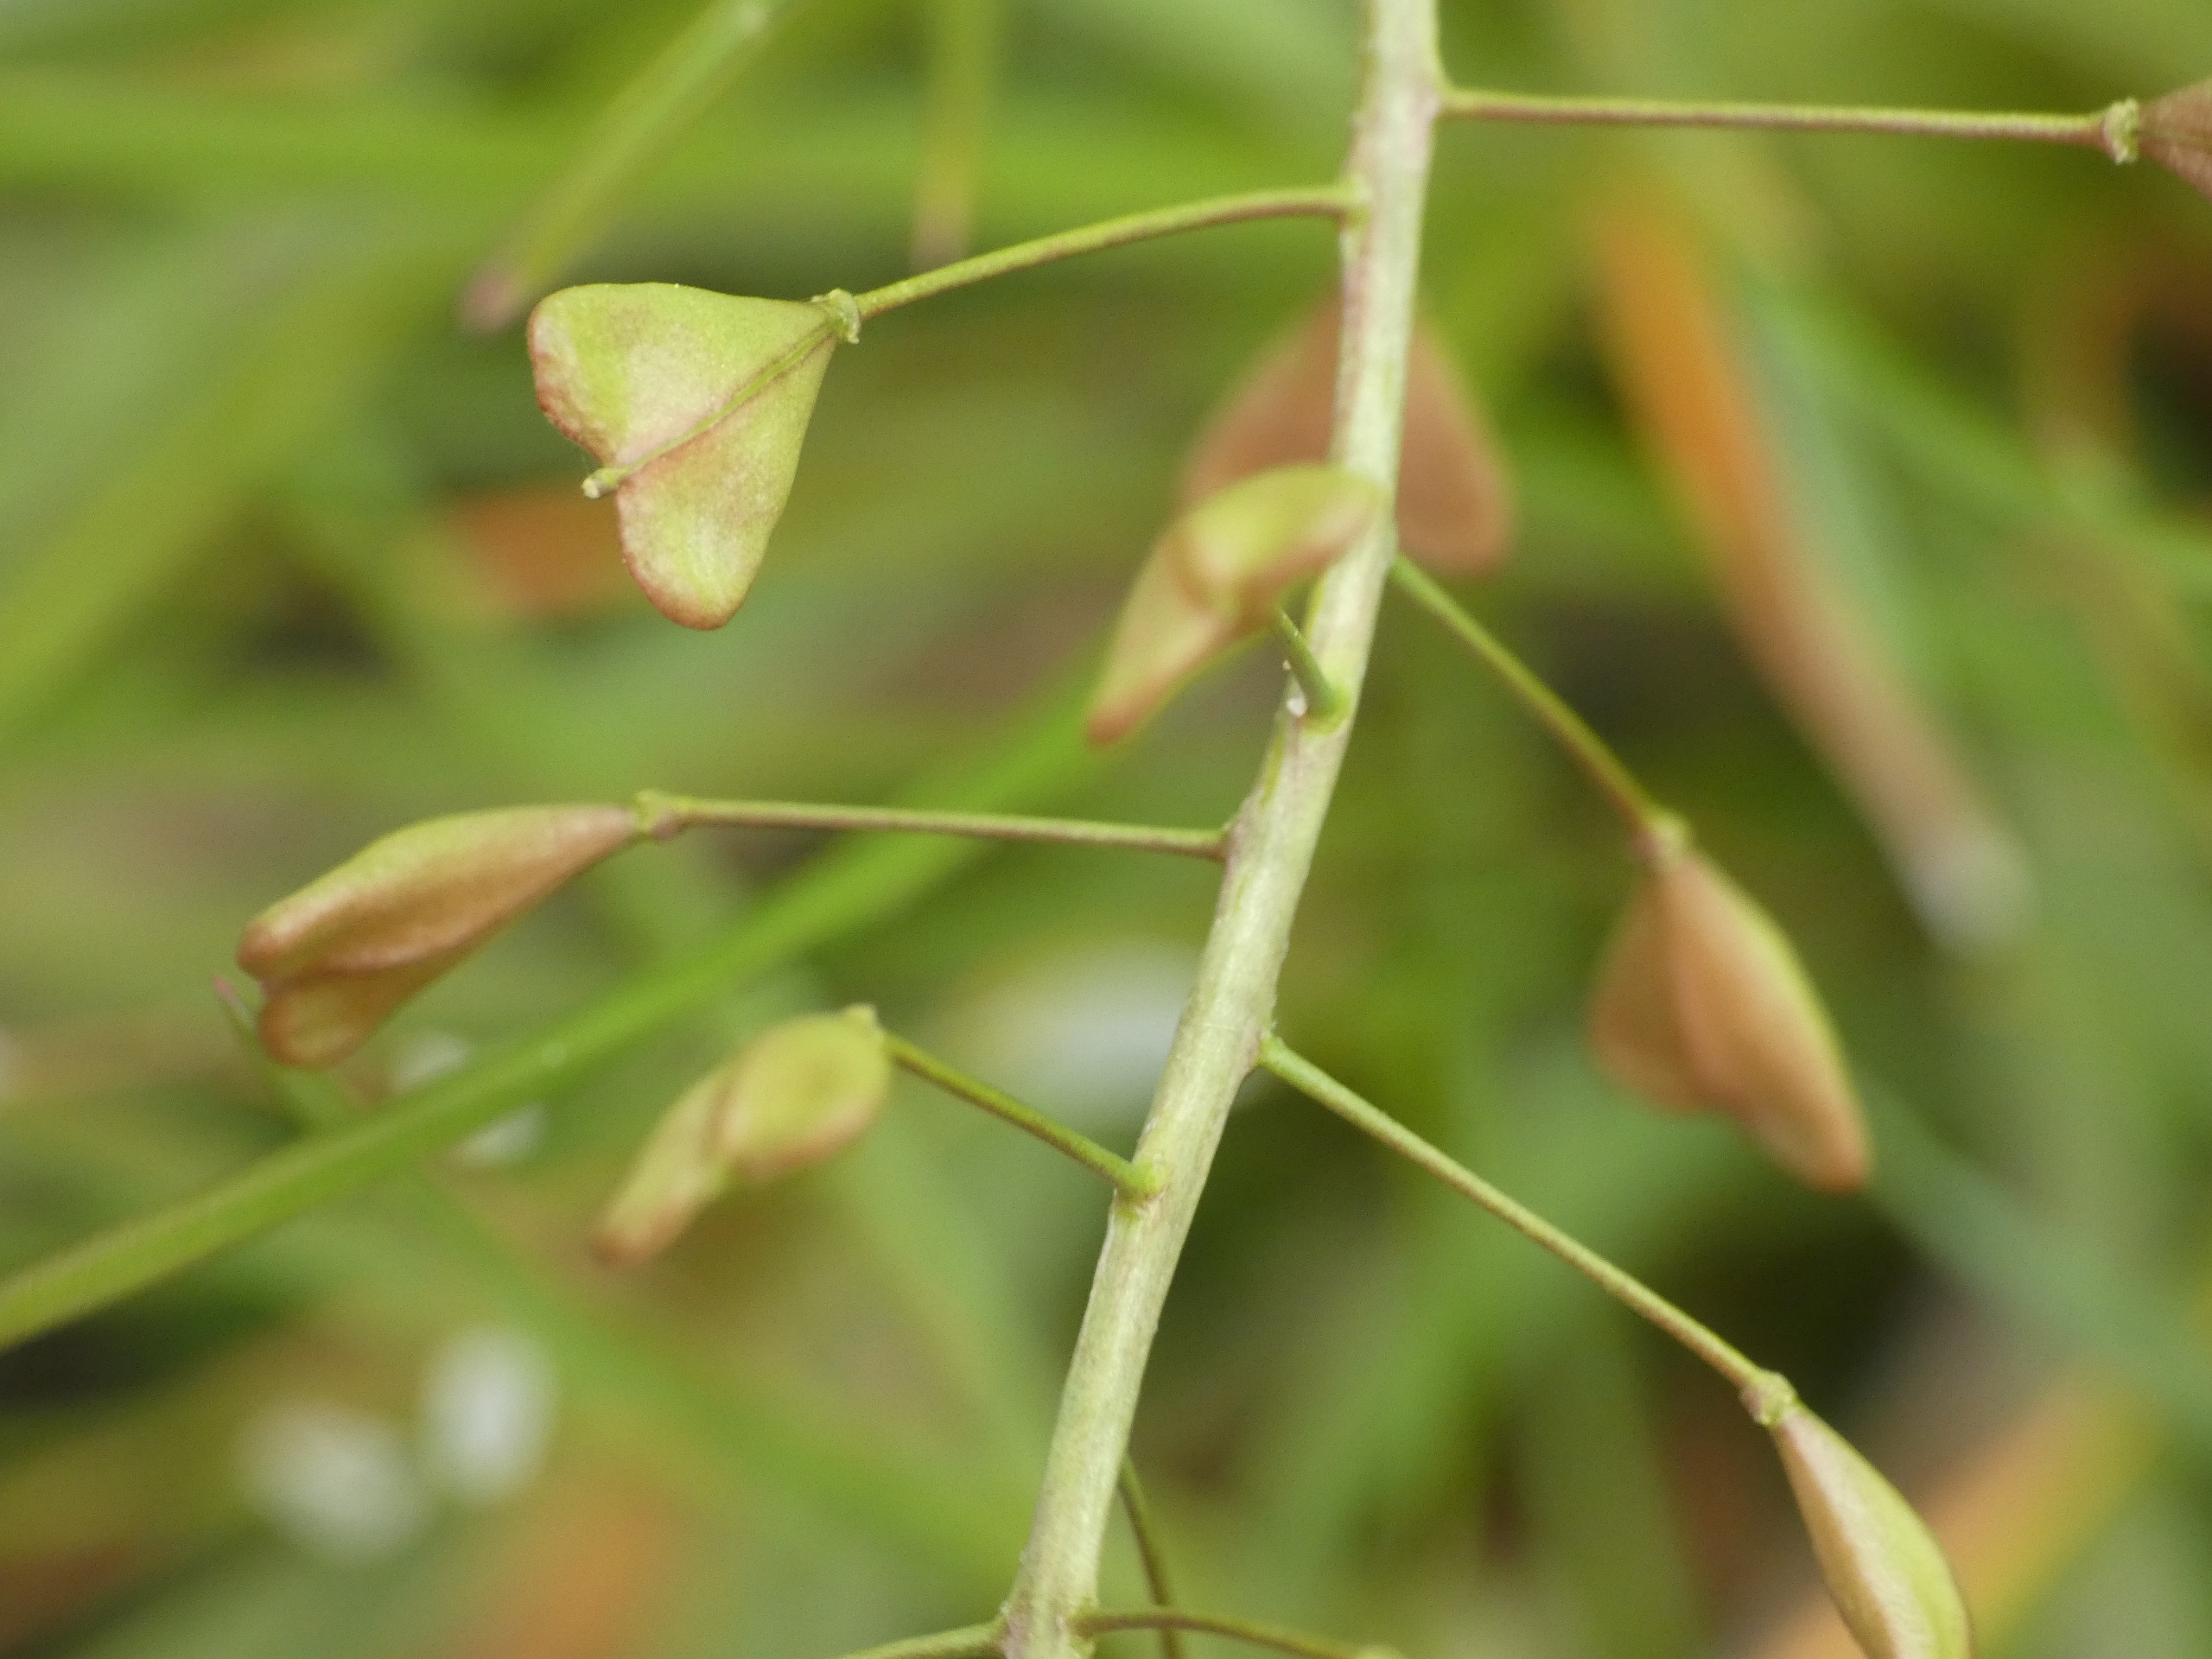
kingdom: Plantae
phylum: Tracheophyta
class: Magnoliopsida
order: Brassicales
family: Brassicaceae
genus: Capsella
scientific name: Capsella bursa-pastoris
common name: Hyrdetaske
